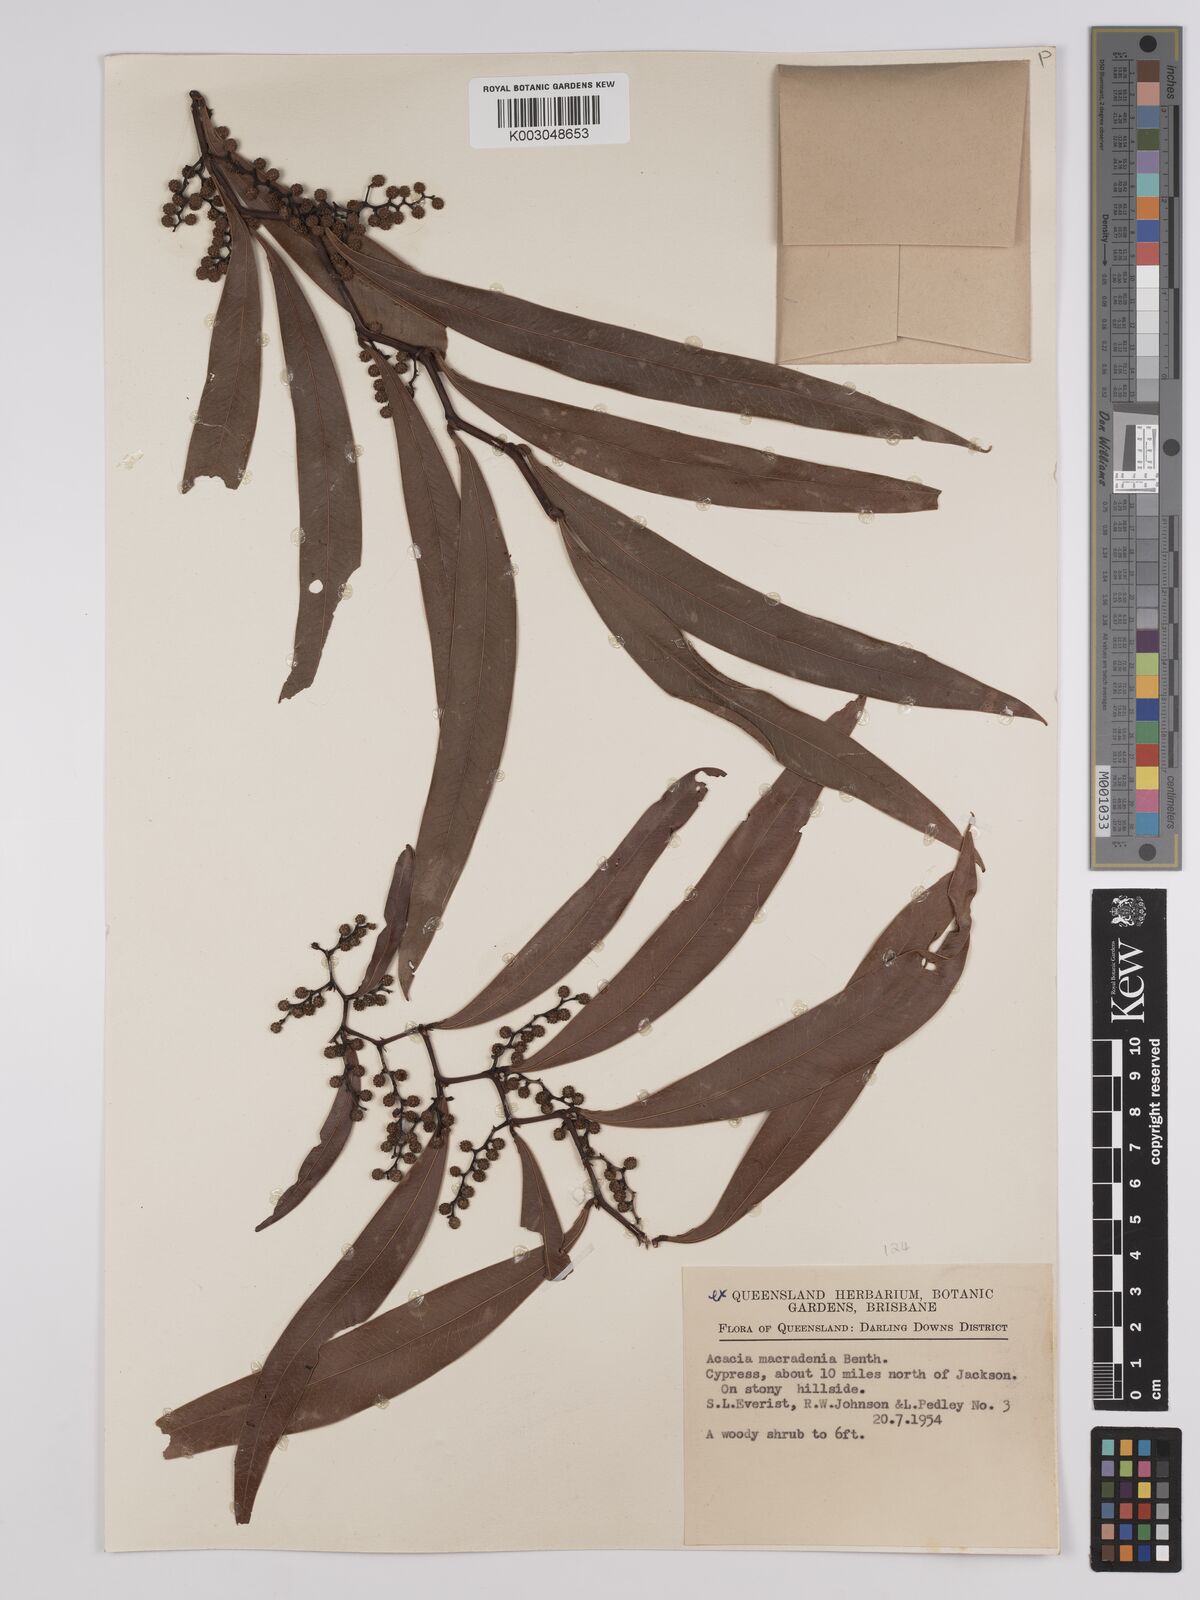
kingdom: Plantae
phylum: Tracheophyta
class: Magnoliopsida
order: Fabales
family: Fabaceae
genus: Acacia
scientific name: Acacia macradenia
